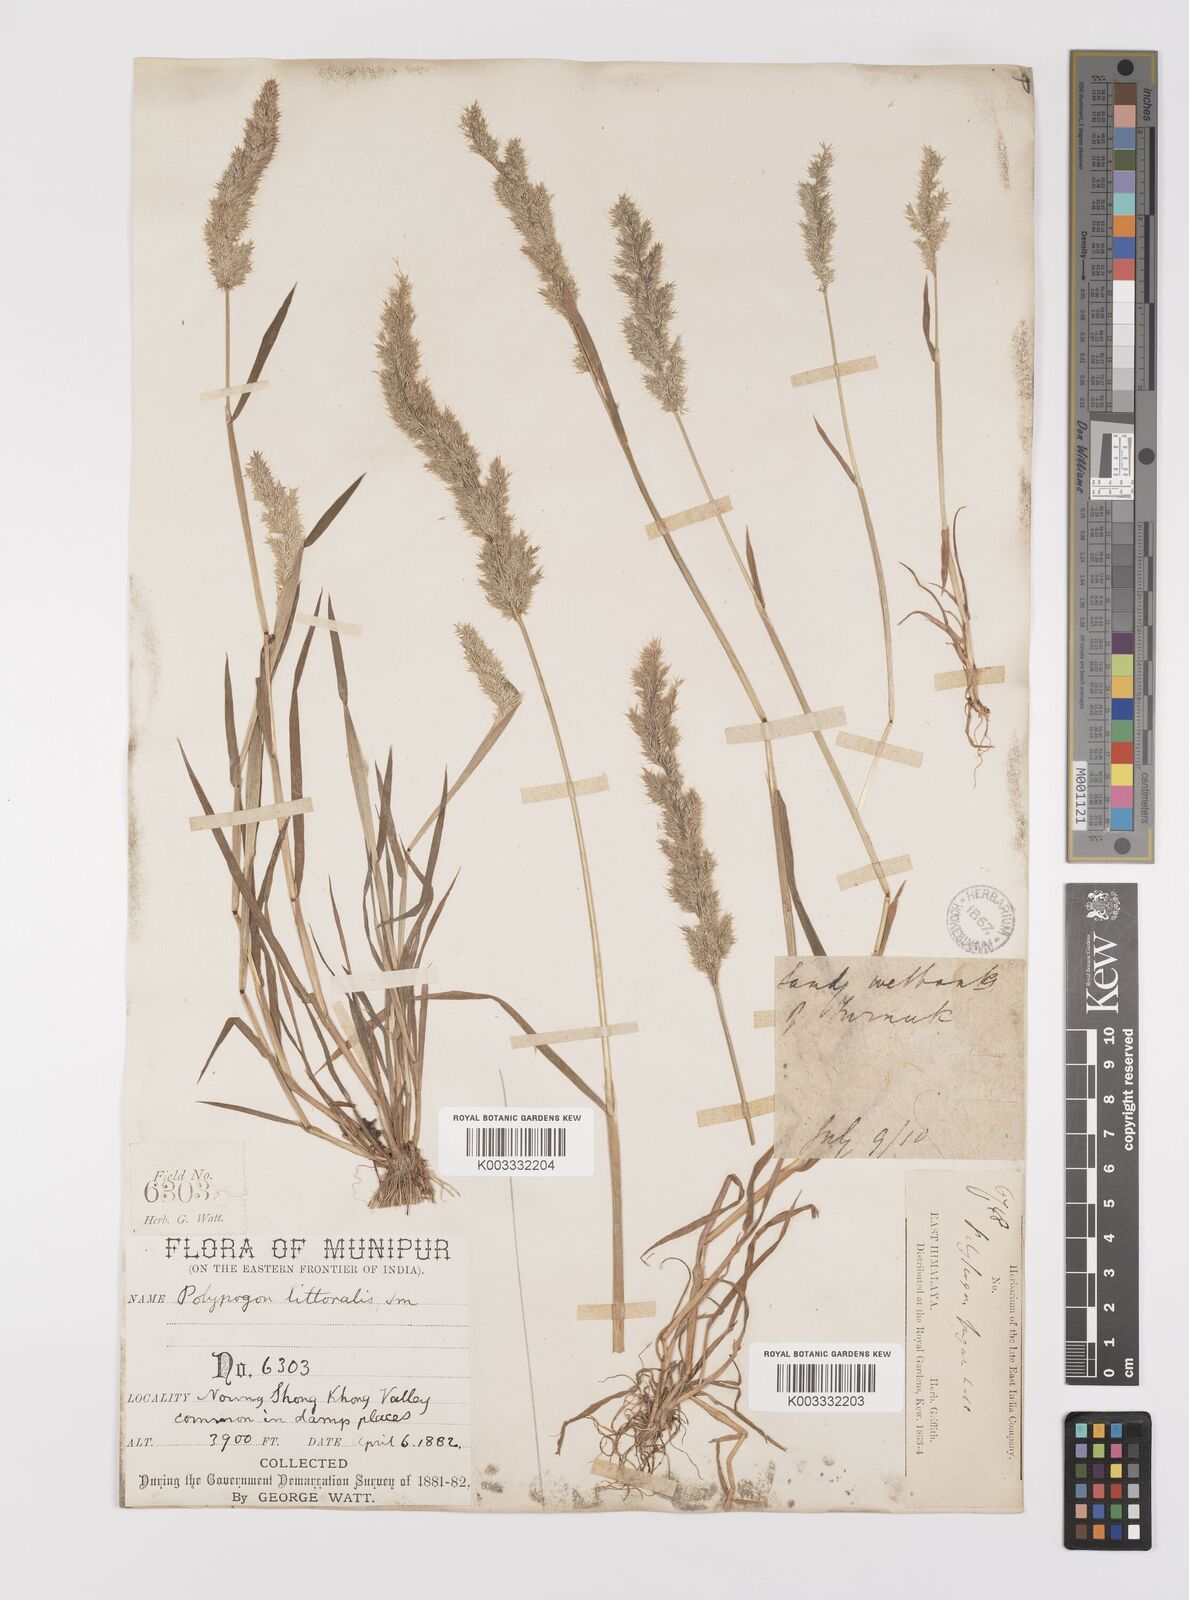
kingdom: Plantae
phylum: Tracheophyta
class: Liliopsida
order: Poales
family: Poaceae
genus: Polypogon
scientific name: Polypogon fugax
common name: Asia minor bluegrass
